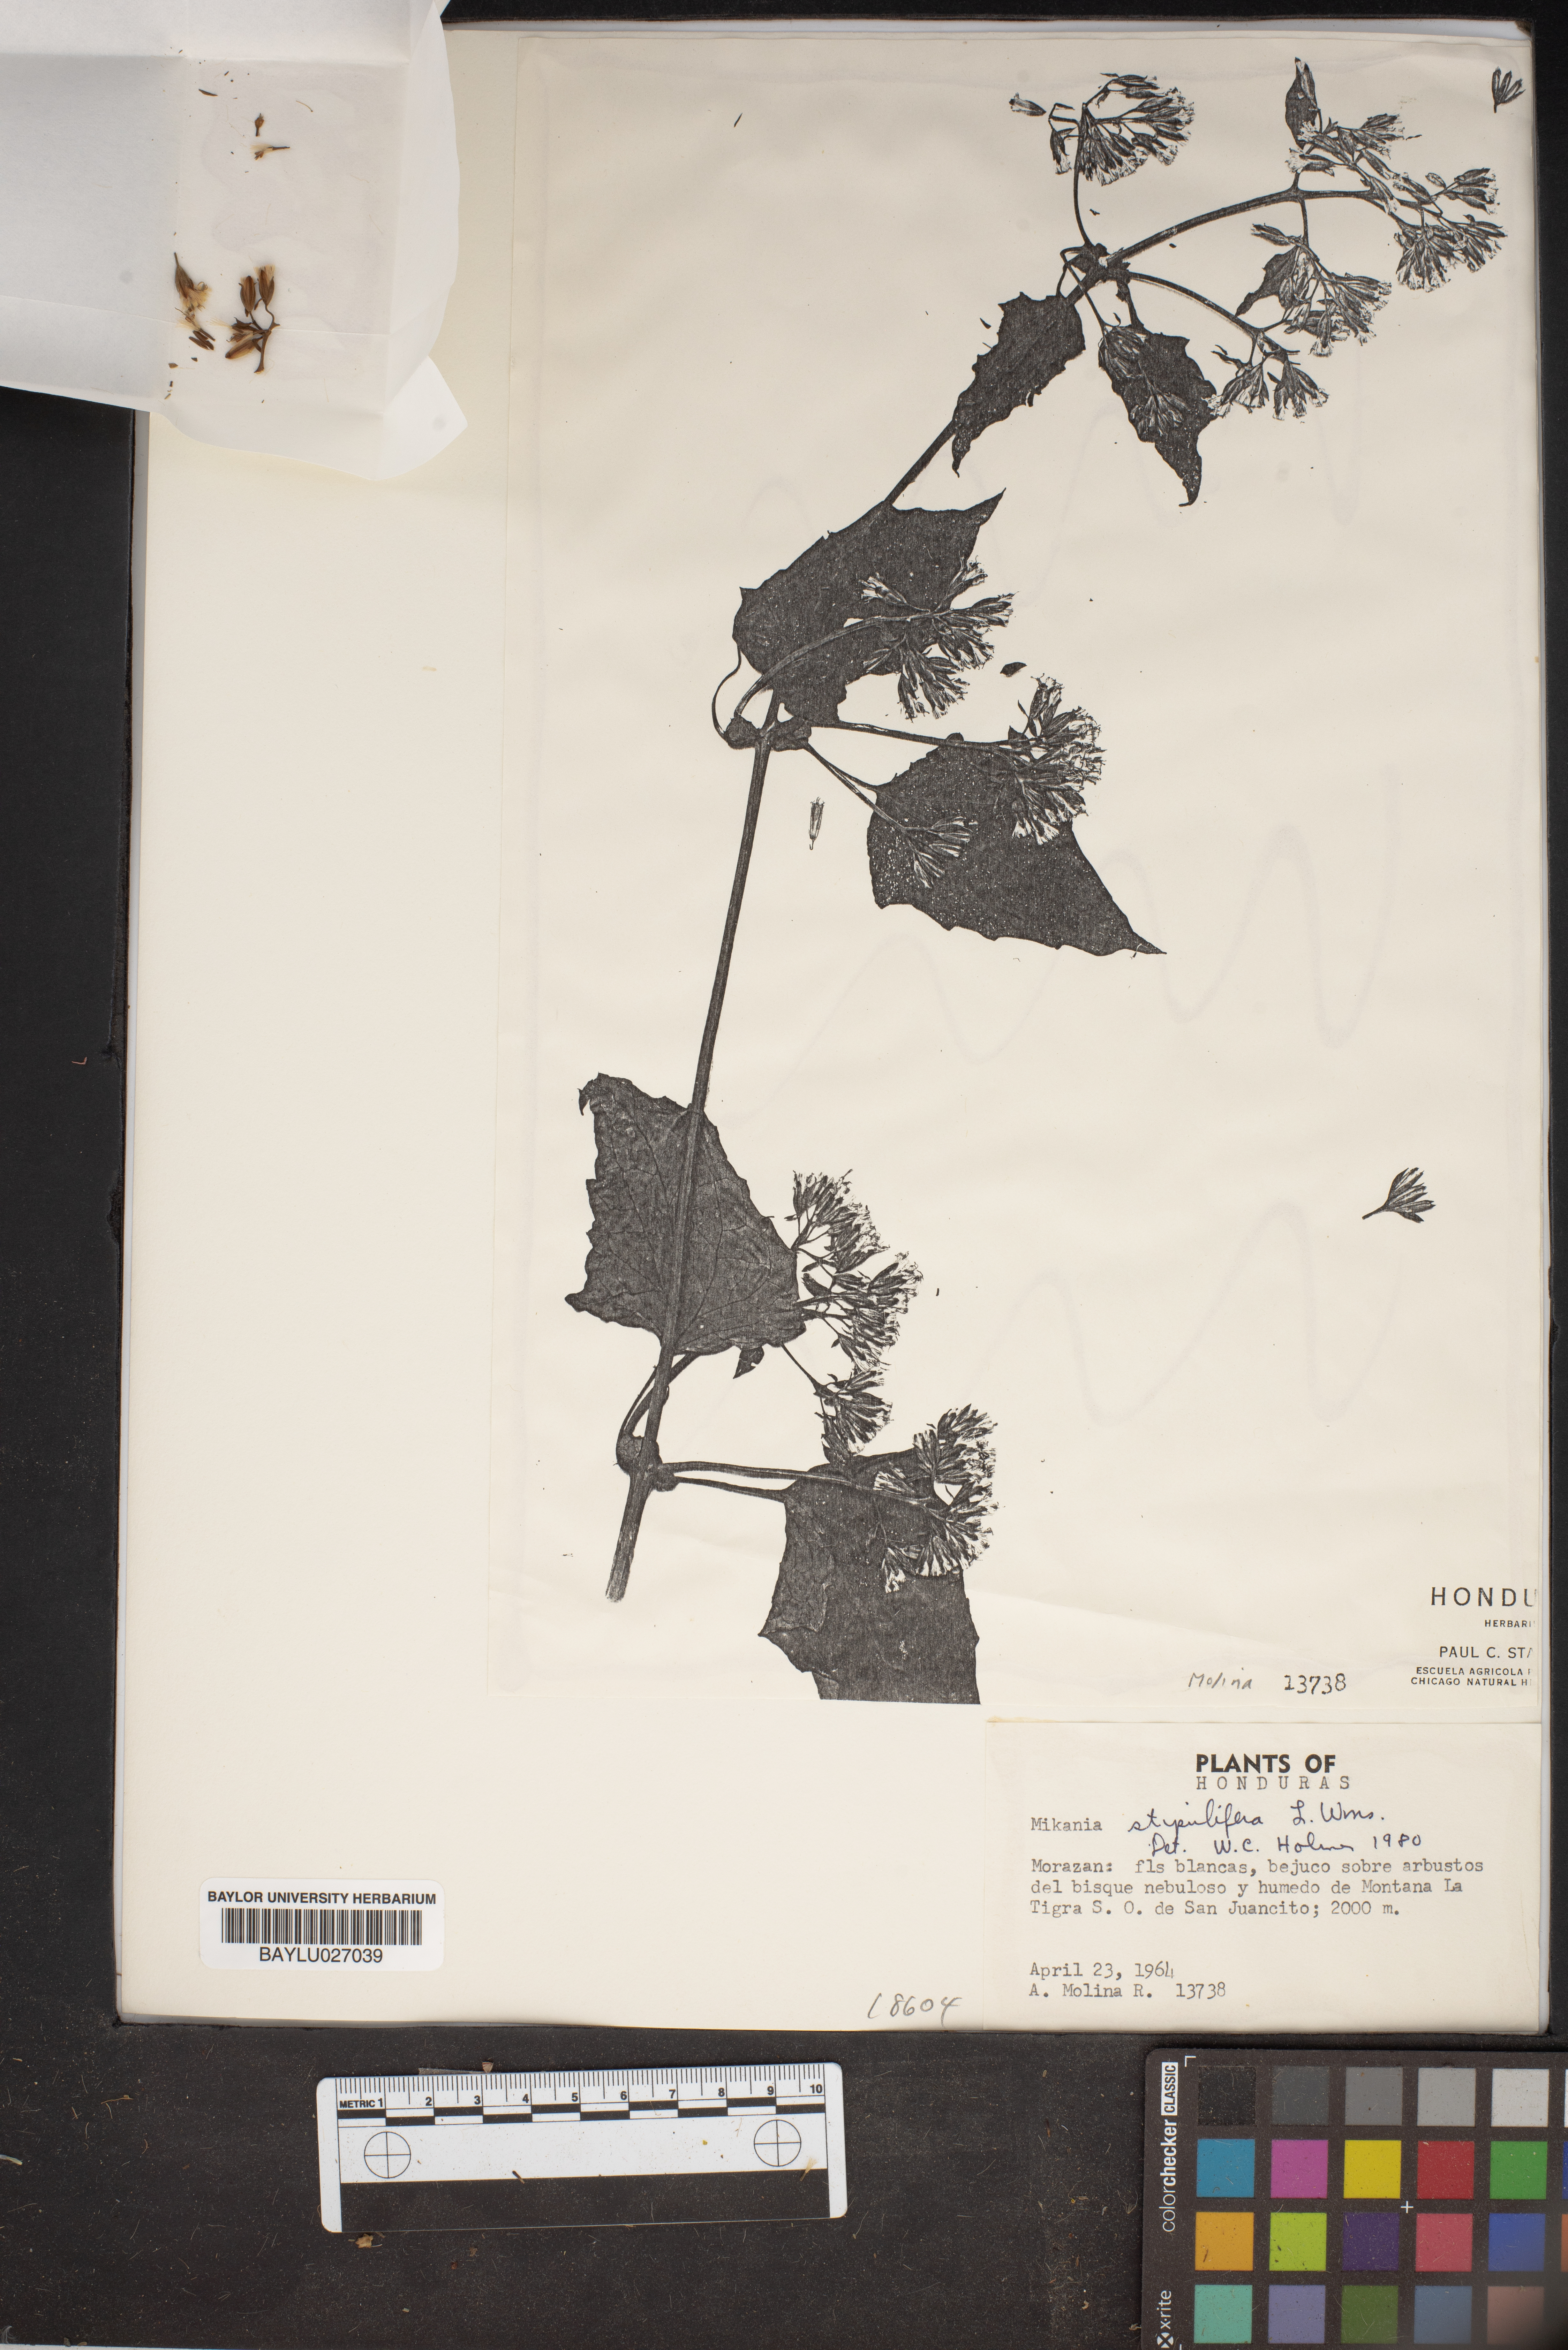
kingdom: Plantae
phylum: Tracheophyta
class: Magnoliopsida
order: Asterales
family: Asteraceae
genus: Mikania
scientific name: Mikania stipulifera
